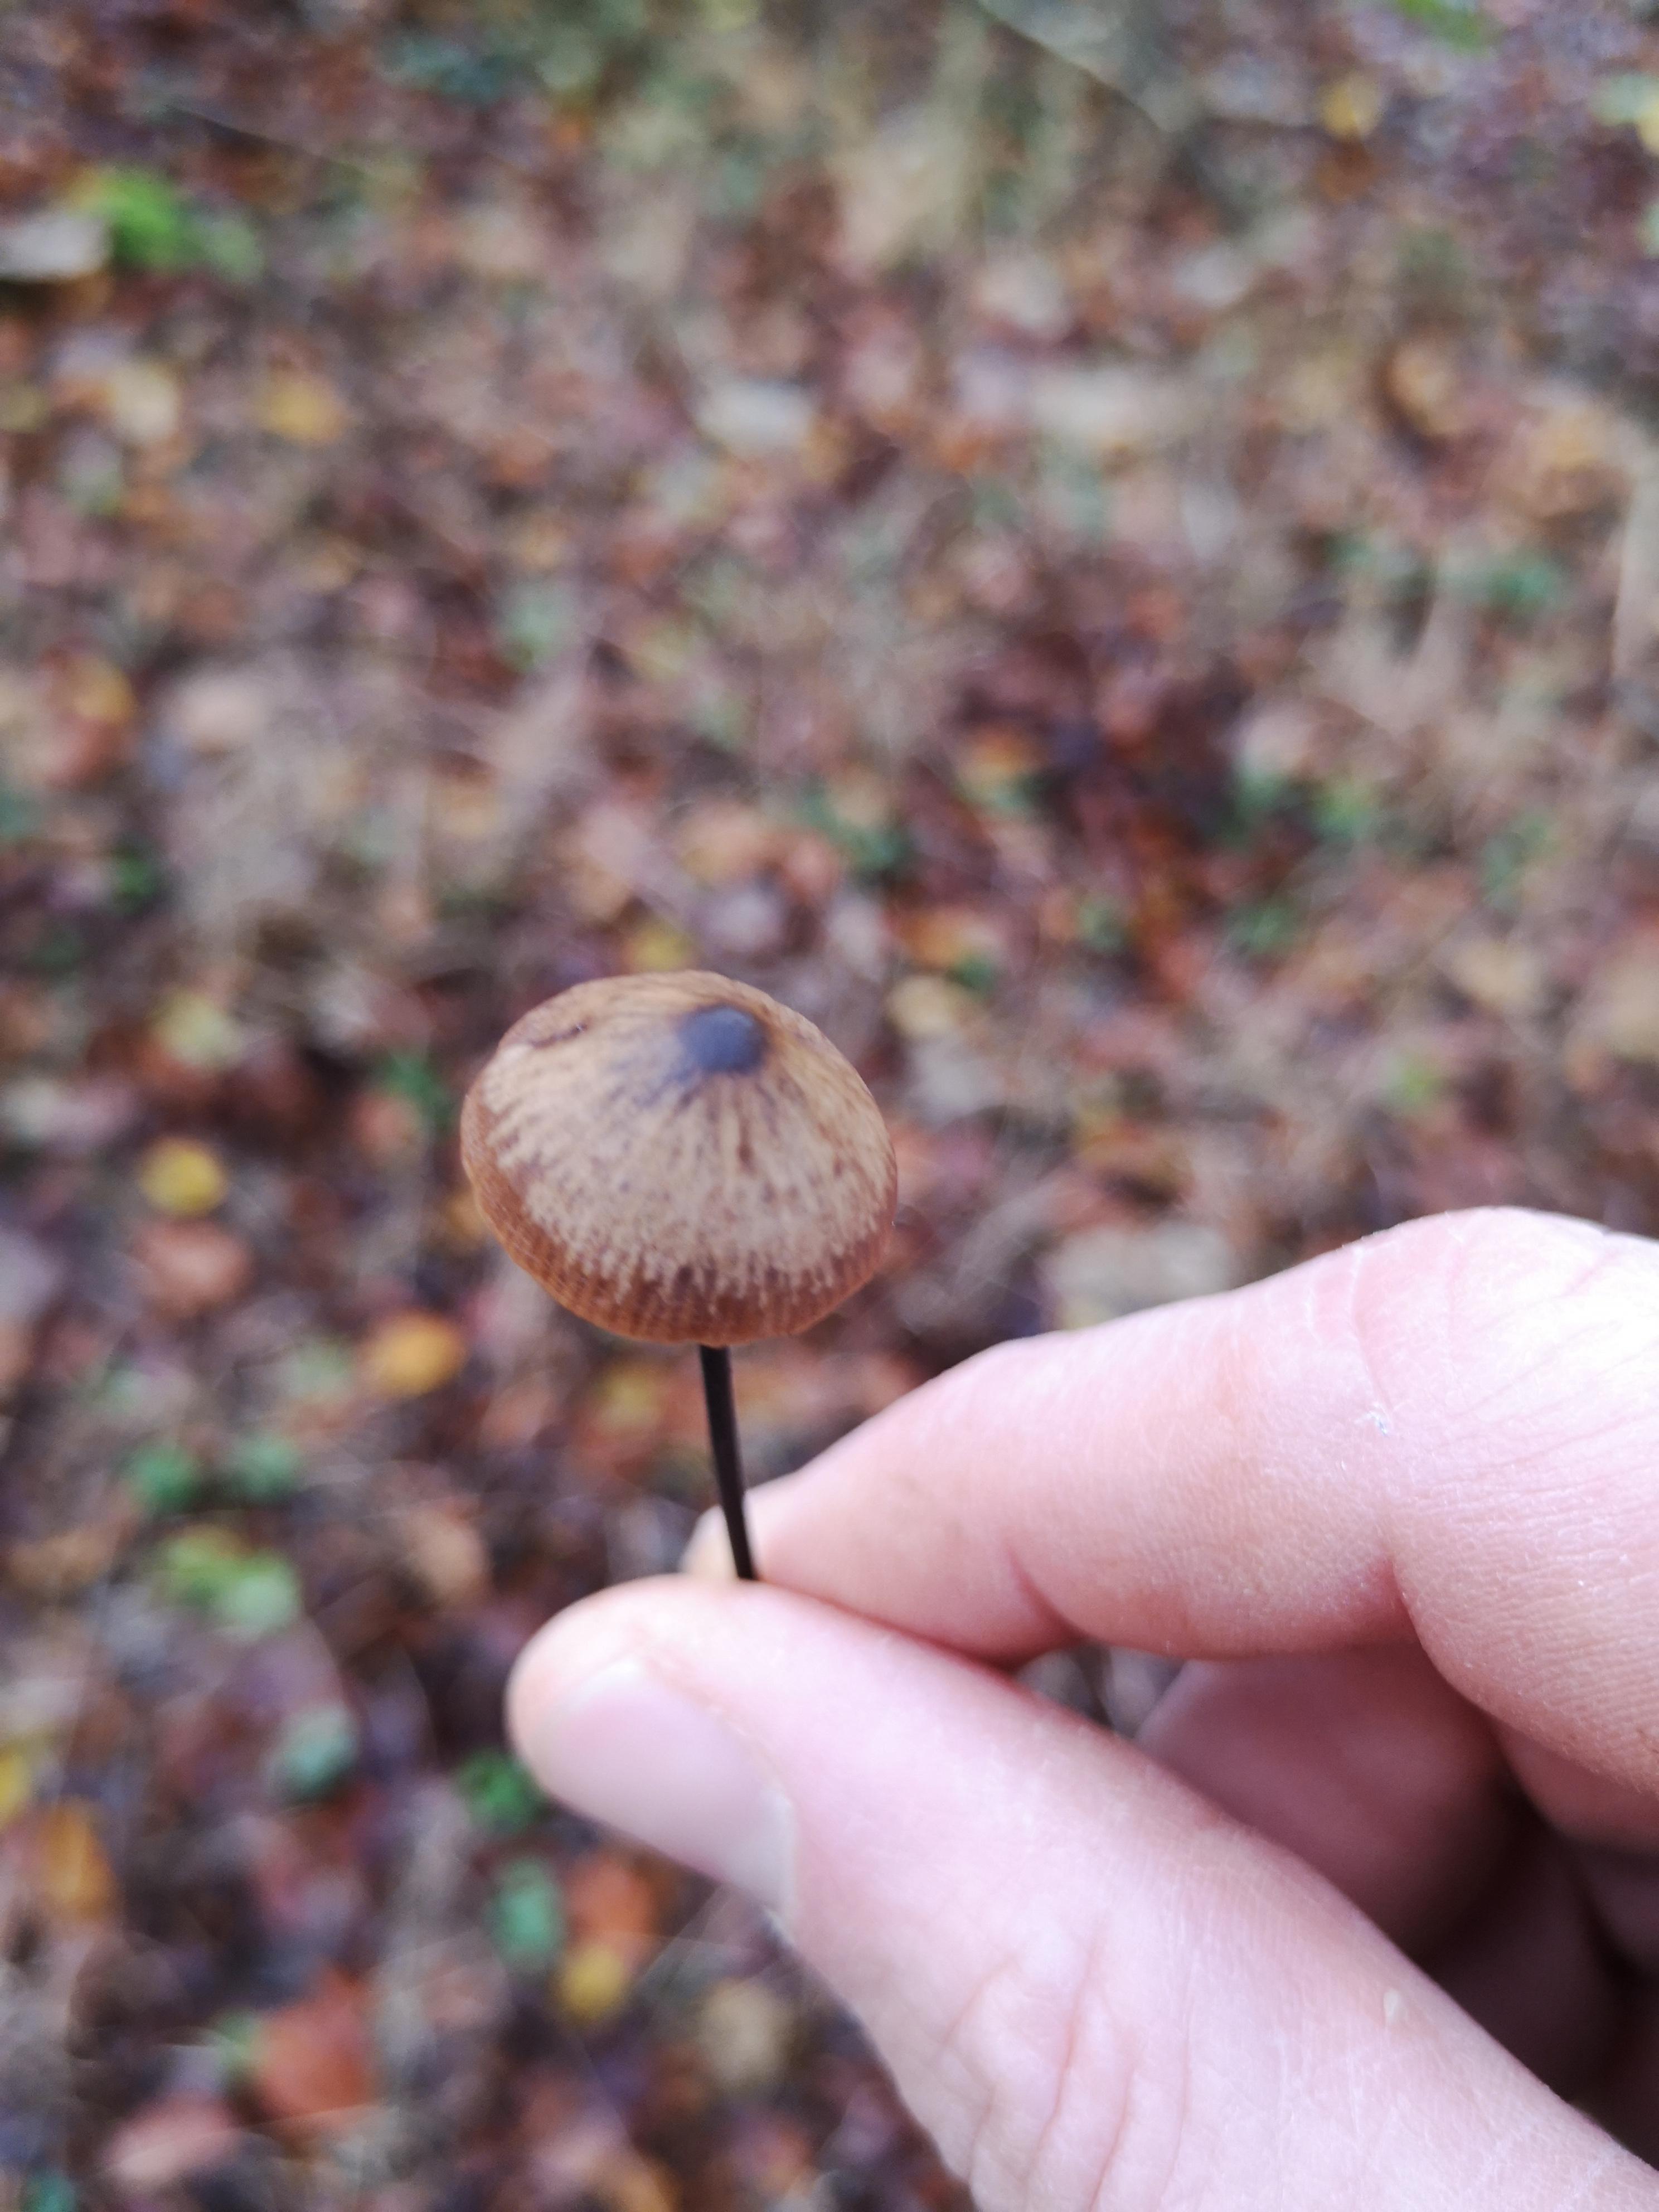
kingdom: Fungi
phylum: Basidiomycota
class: Agaricomycetes
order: Agaricales
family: Macrocystidiaceae
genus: Macrocystidia
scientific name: Macrocystidia cucumis
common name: agurkehat
